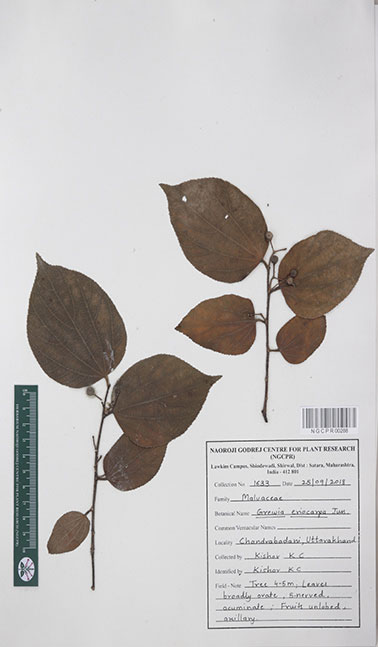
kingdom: Plantae
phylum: Tracheophyta
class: Magnoliopsida
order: Malvales
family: Malvaceae
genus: Grewia
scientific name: Grewia eriocarpa
